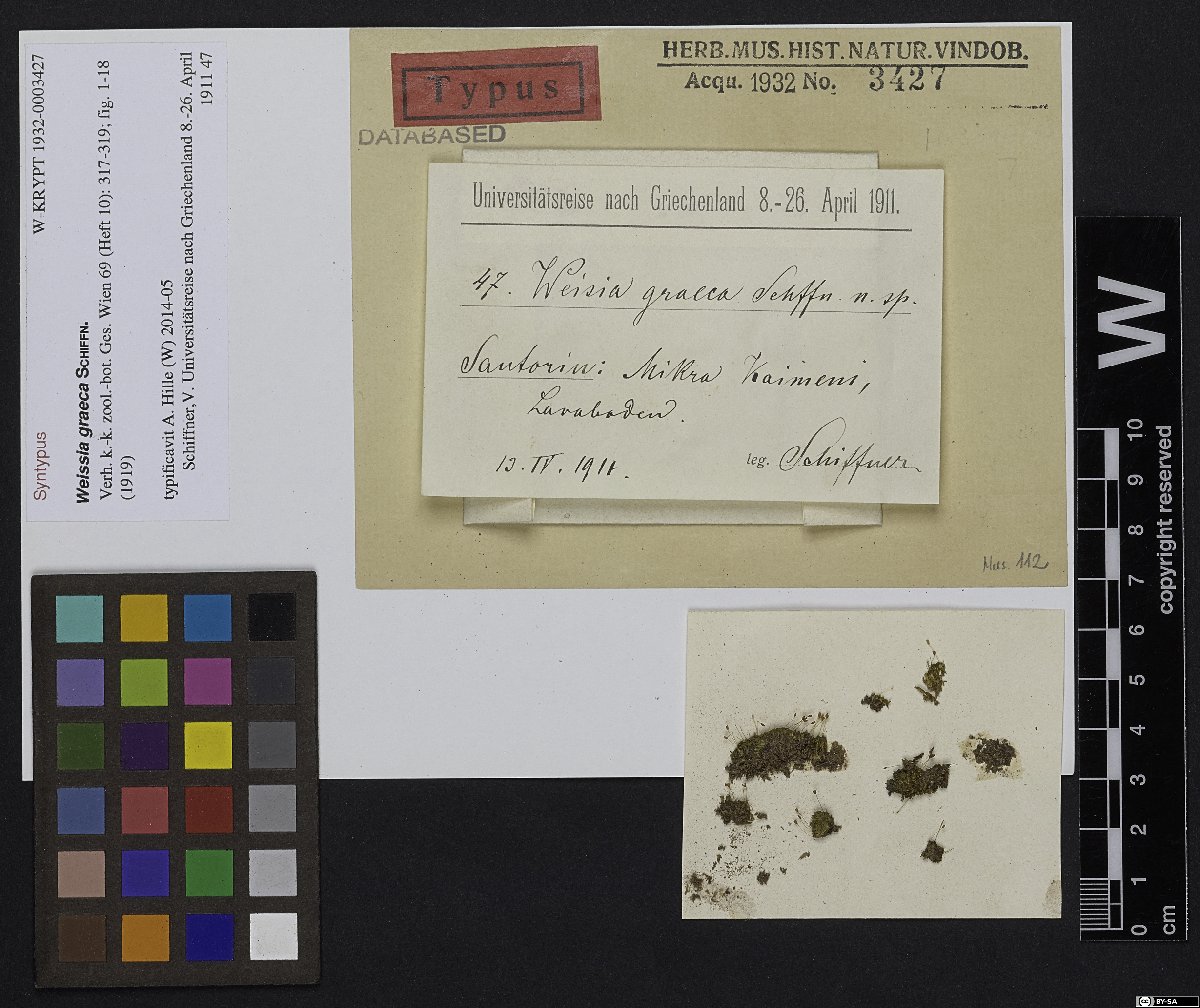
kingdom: Plantae
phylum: Bryophyta
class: Bryopsida
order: Pottiales
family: Pottiaceae
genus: Weissia
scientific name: Weissia controversa
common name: Green-tufted stubble moss
